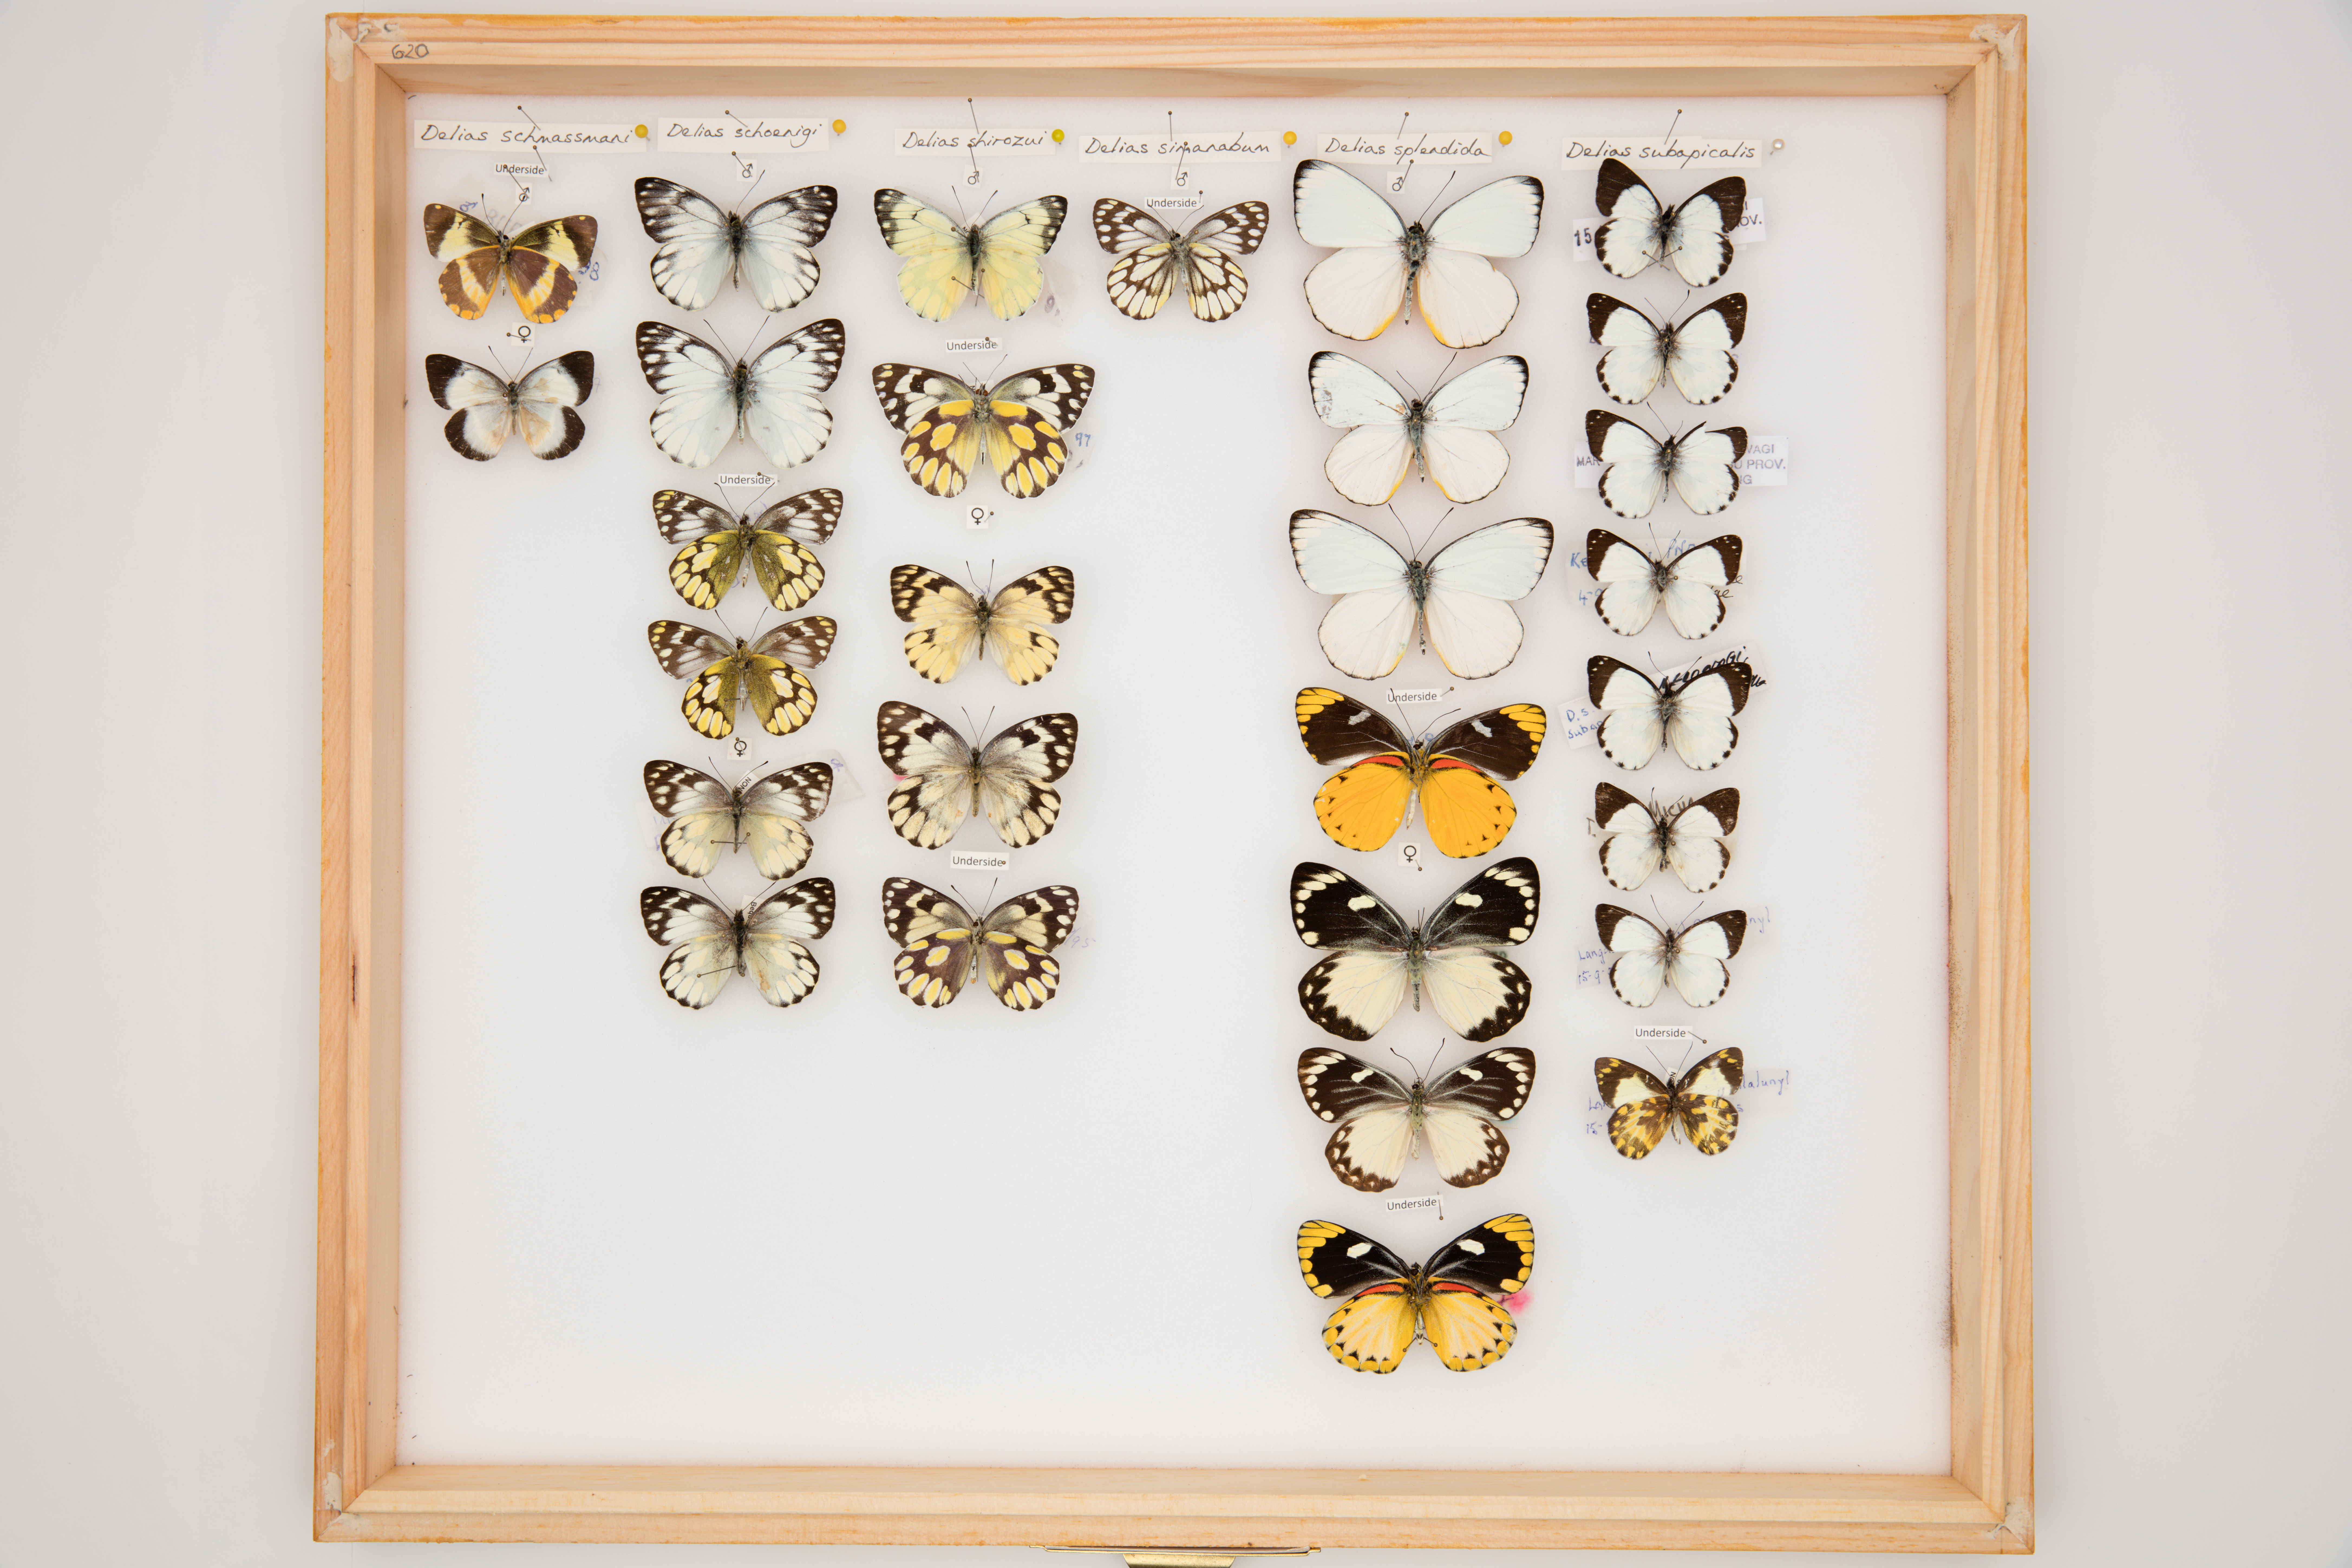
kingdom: Animalia
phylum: Arthropoda
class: Insecta
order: Lepidoptera
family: Pieridae
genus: Delias
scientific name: Delias shirozui
